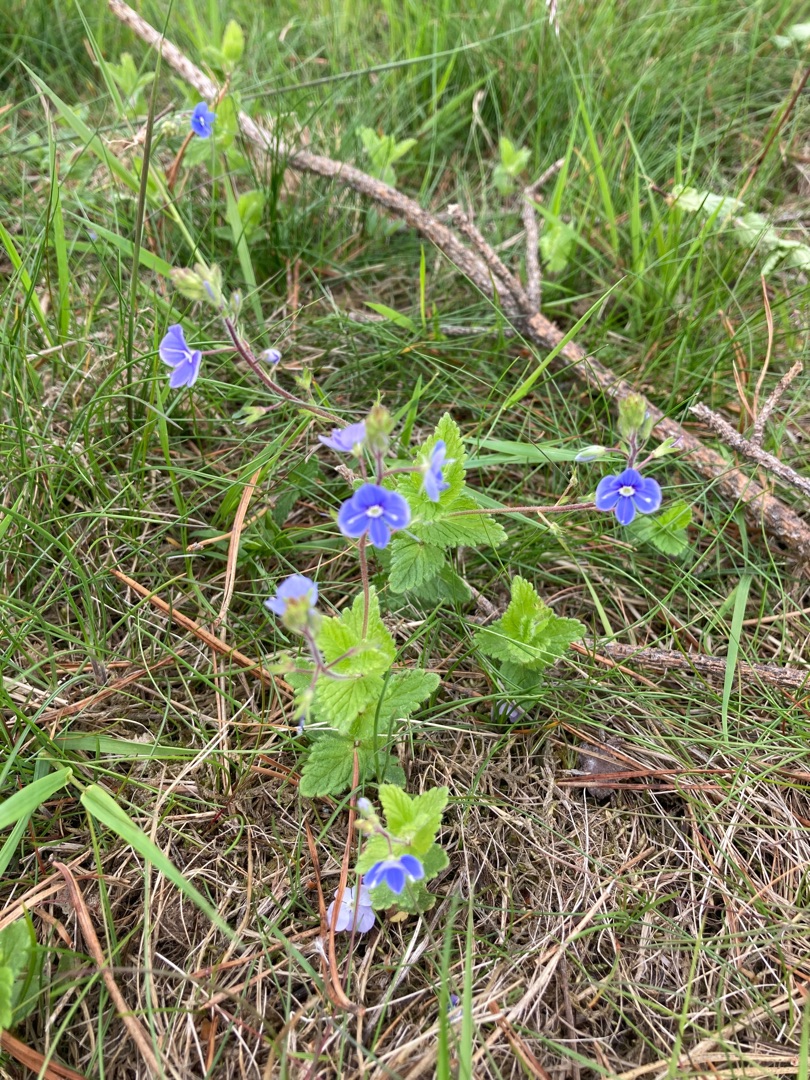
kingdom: Plantae
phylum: Tracheophyta
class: Magnoliopsida
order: Lamiales
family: Plantaginaceae
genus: Veronica
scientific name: Veronica chamaedrys
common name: Tveskægget ærenpris
